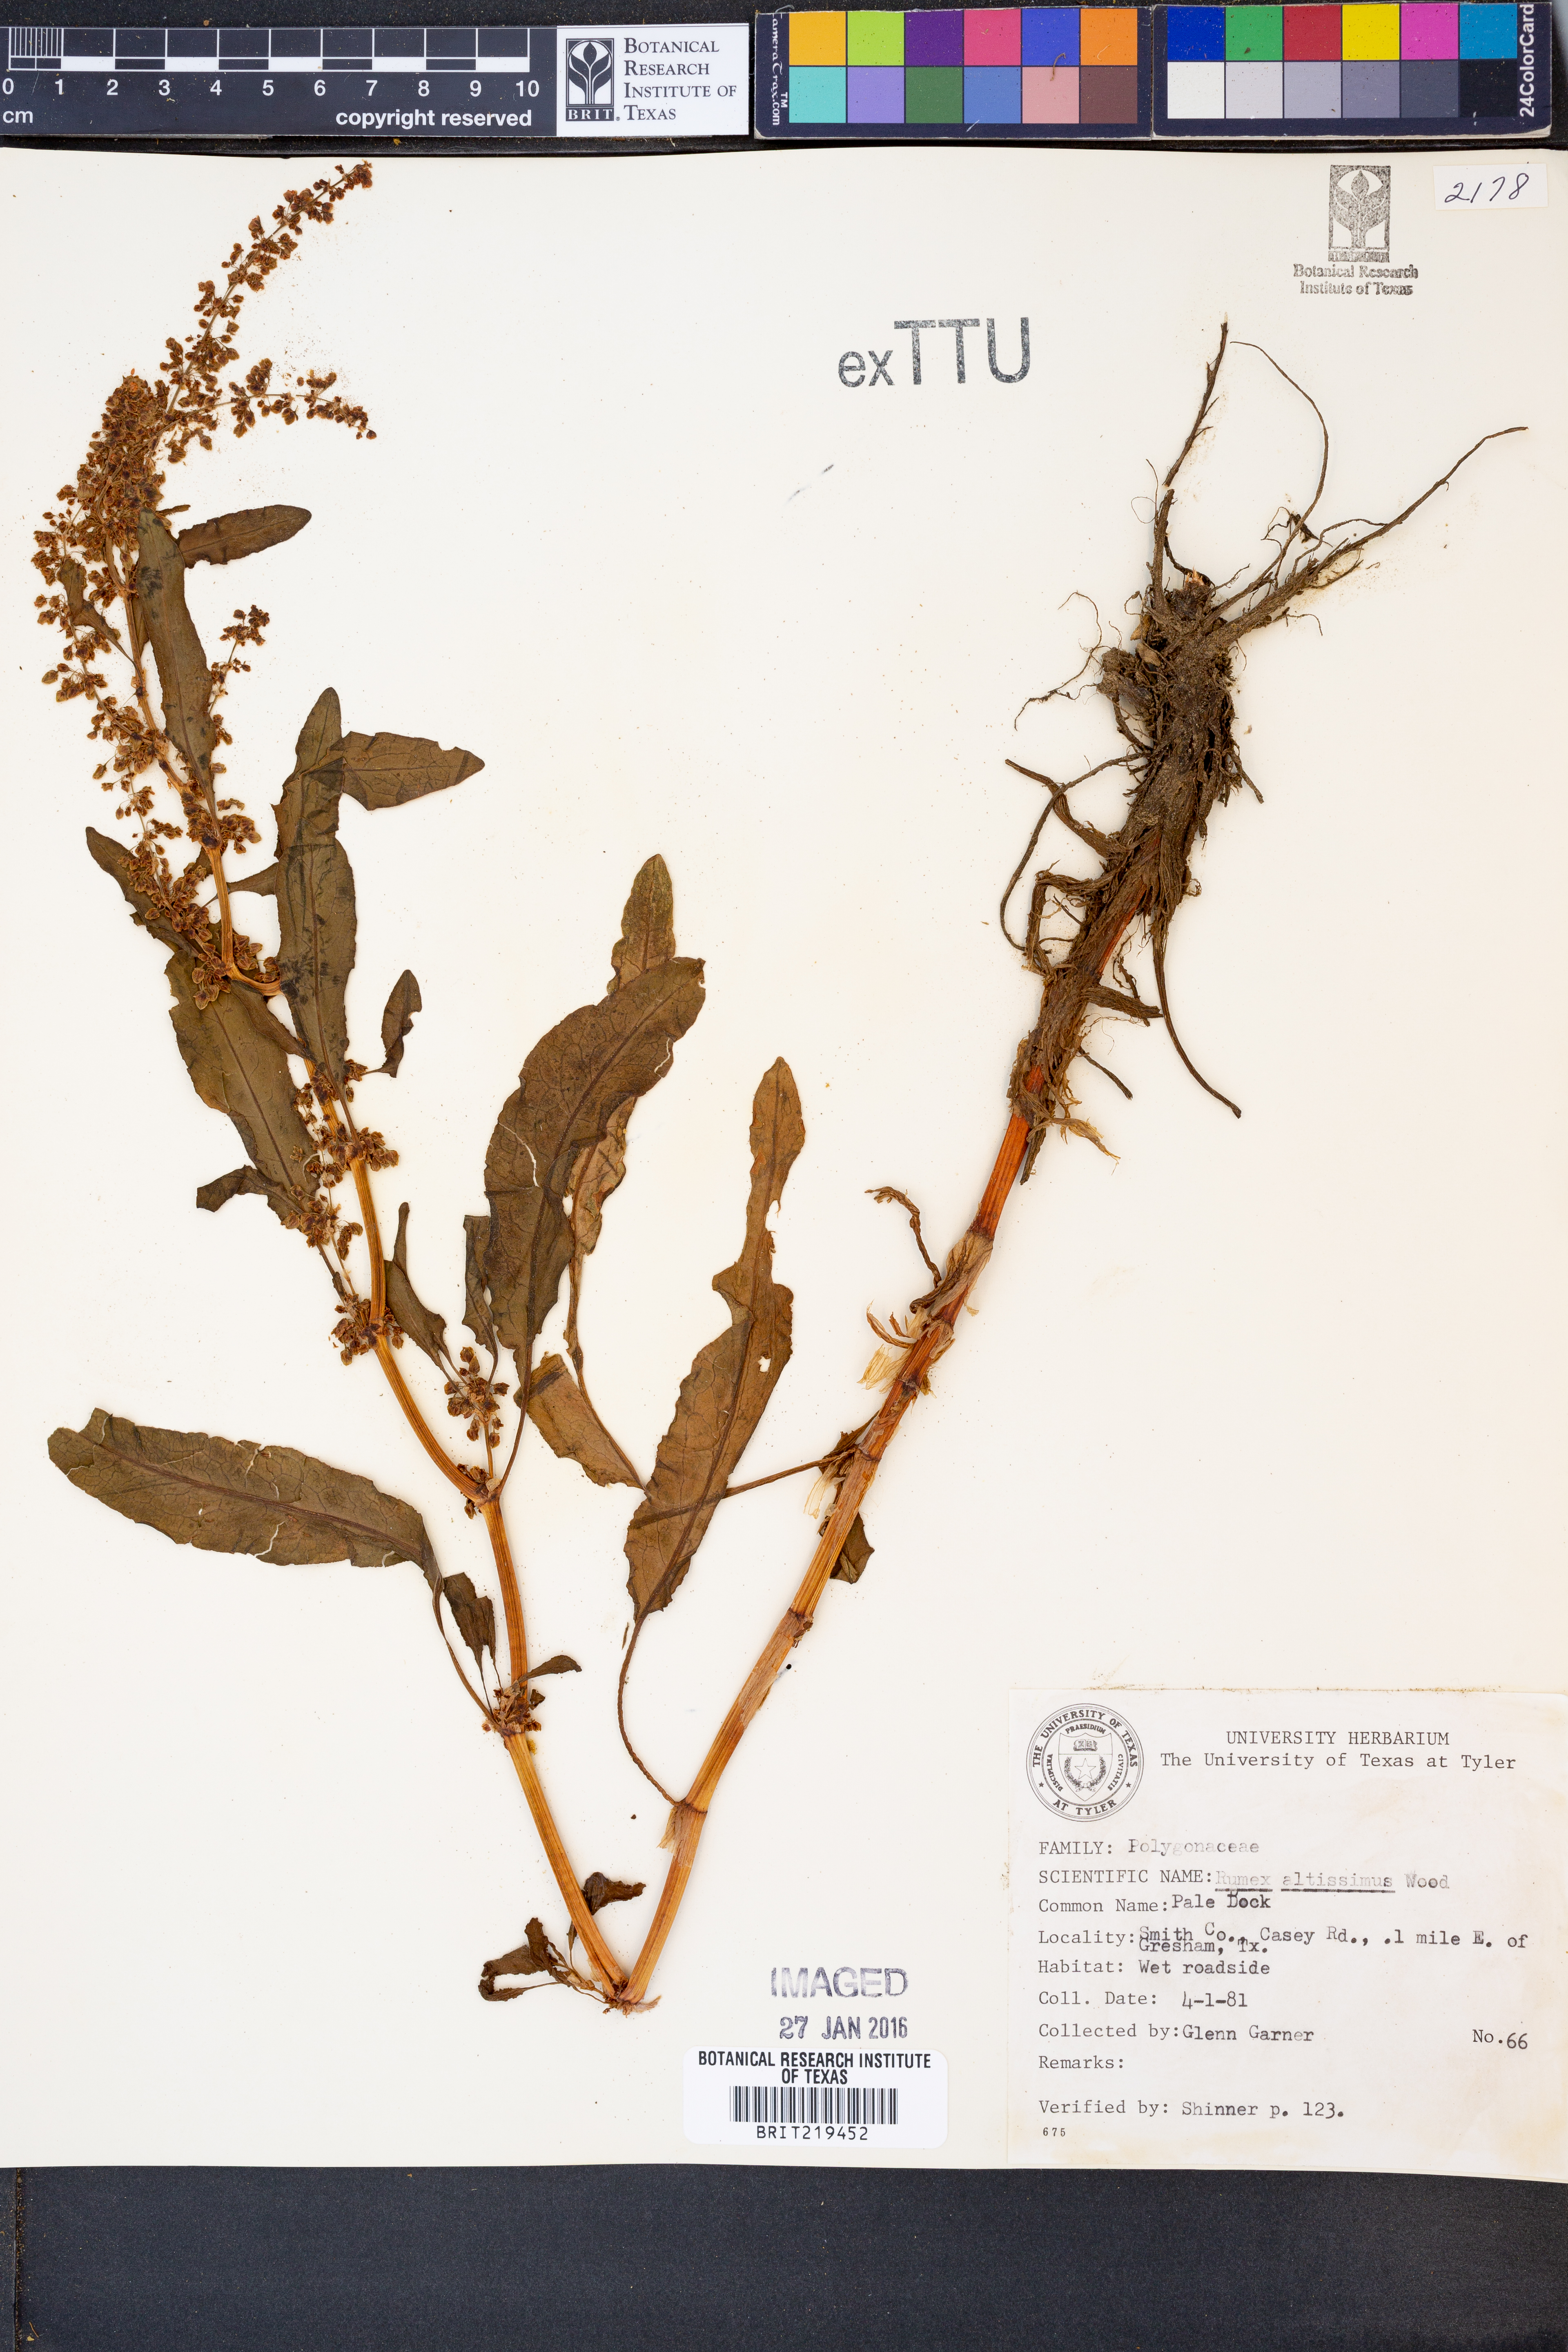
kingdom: Plantae
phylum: Tracheophyta
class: Magnoliopsida
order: Caryophyllales
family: Polygonaceae
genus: Rumex
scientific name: Rumex altissimus
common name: Smooth dock
